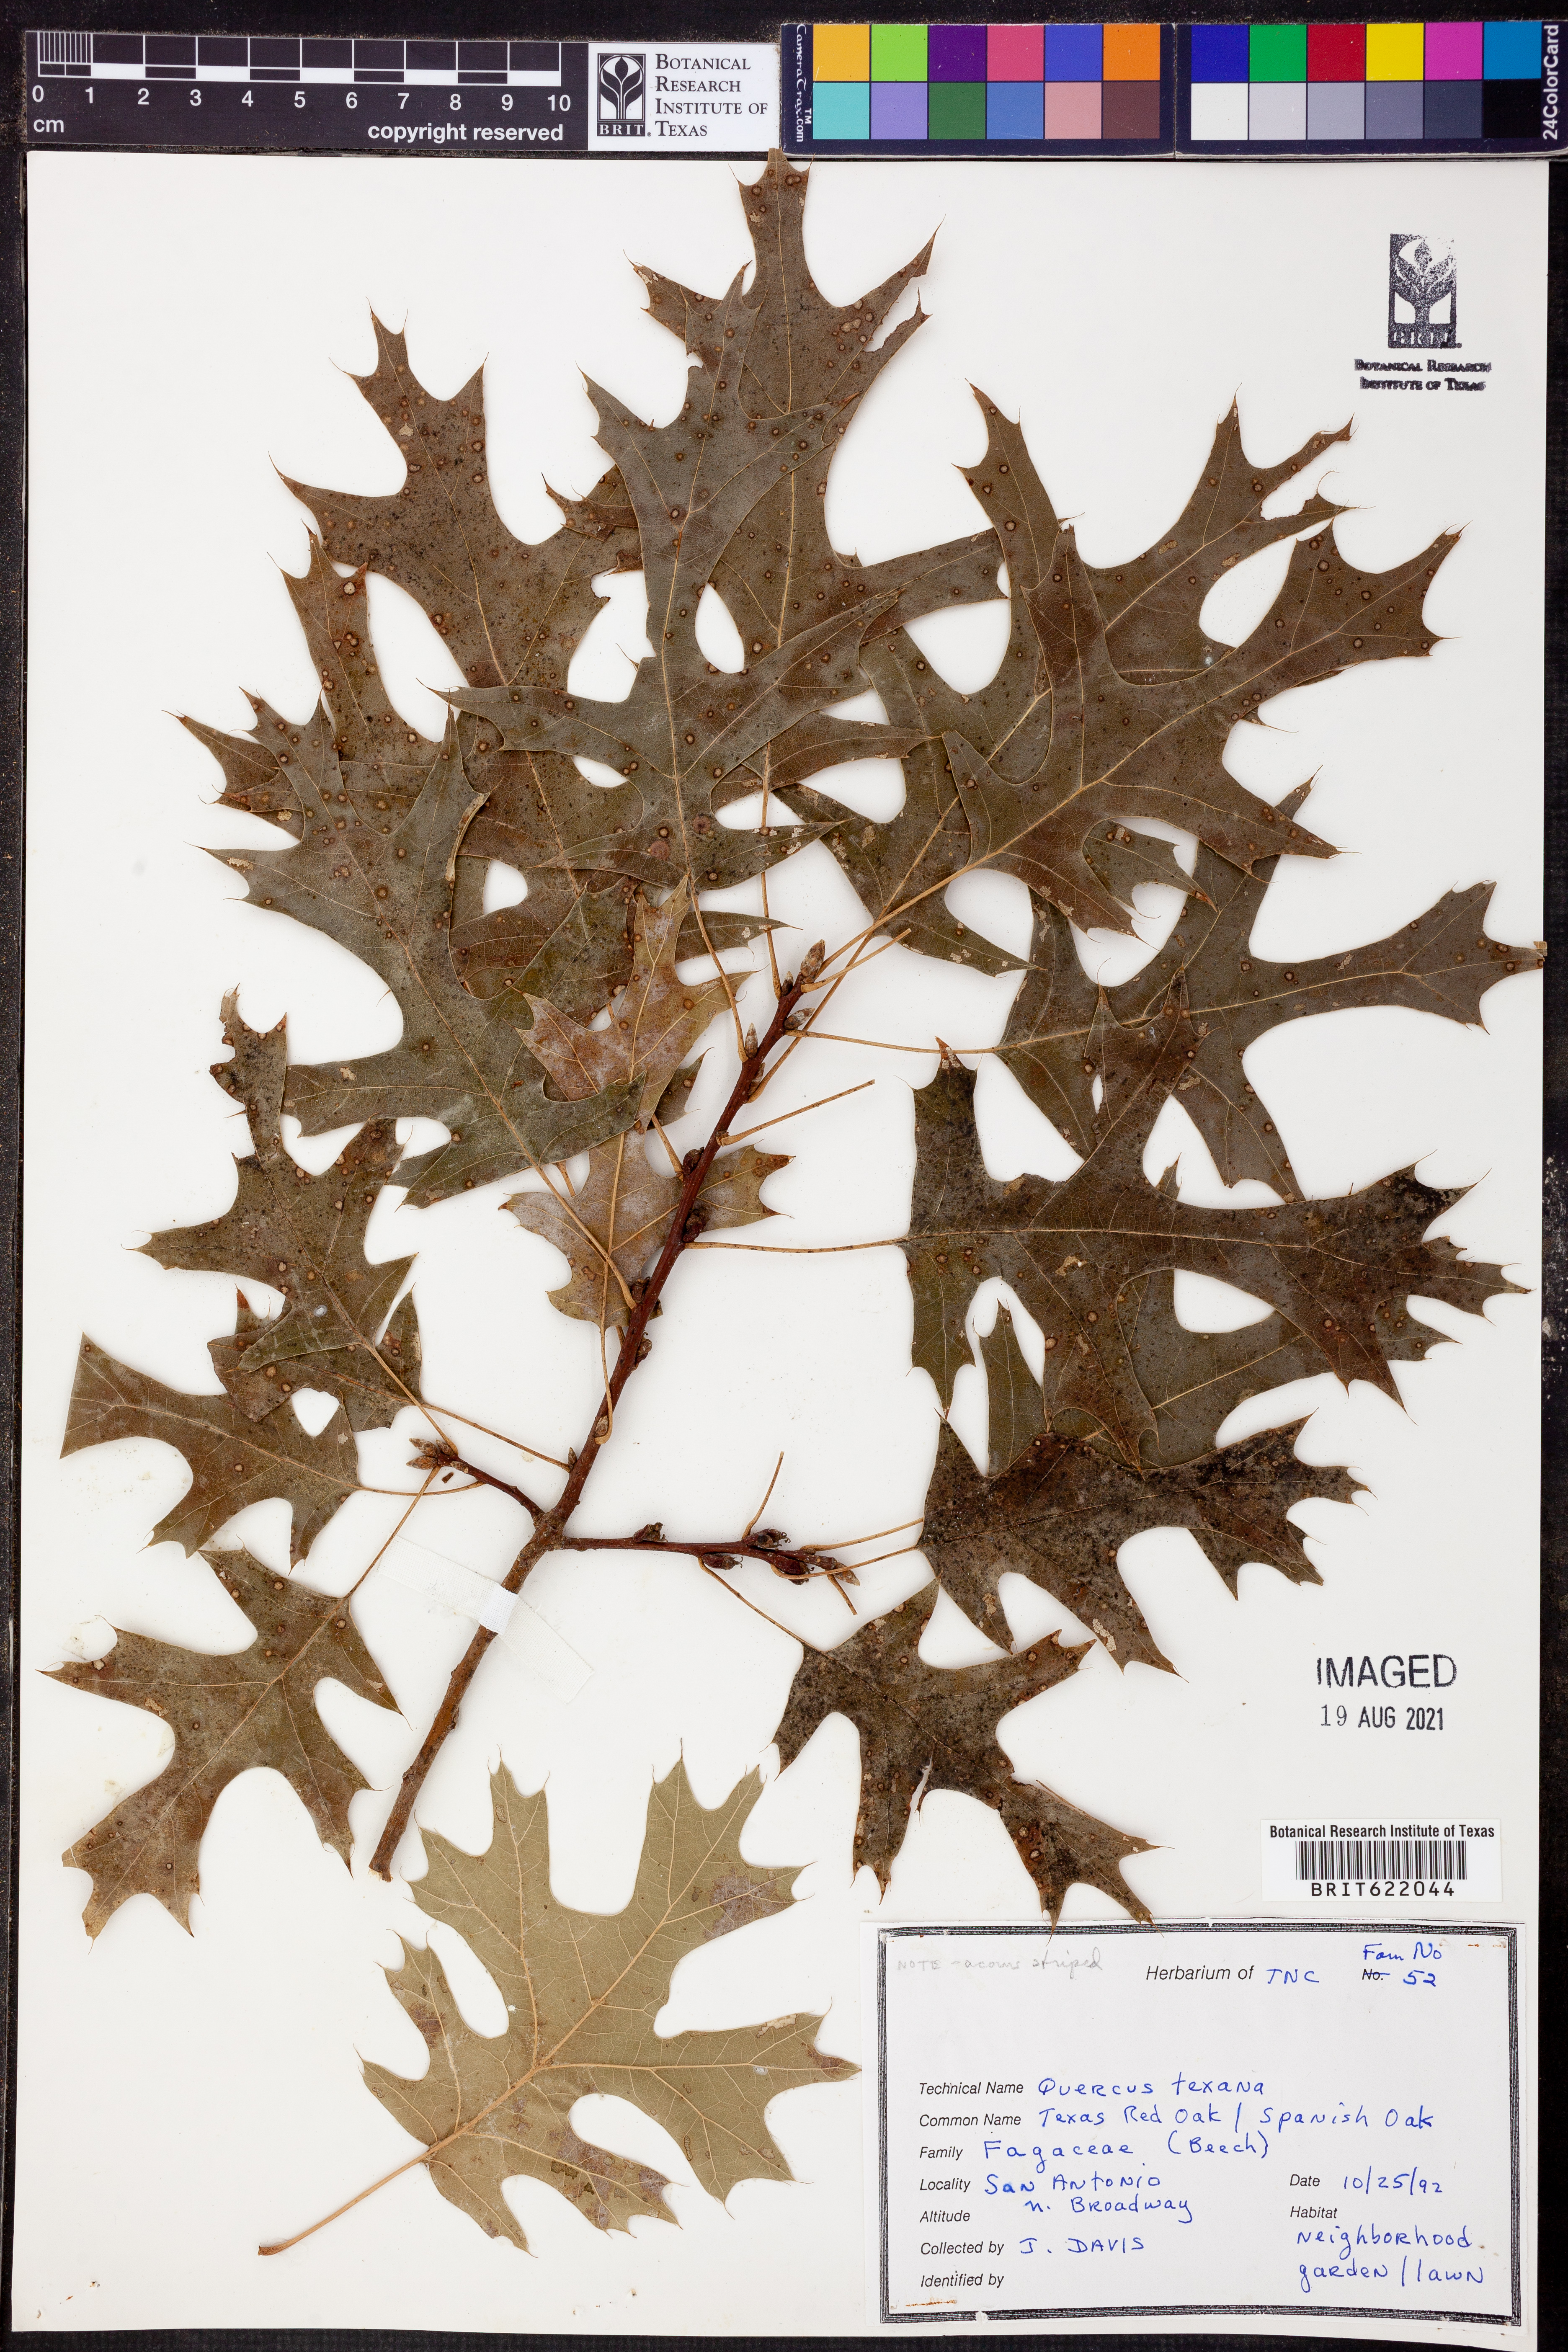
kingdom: Plantae
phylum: Tracheophyta
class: Magnoliopsida
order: Fagales
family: Fagaceae
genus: Quercus
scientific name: Quercus texana
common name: Nuttall oak
